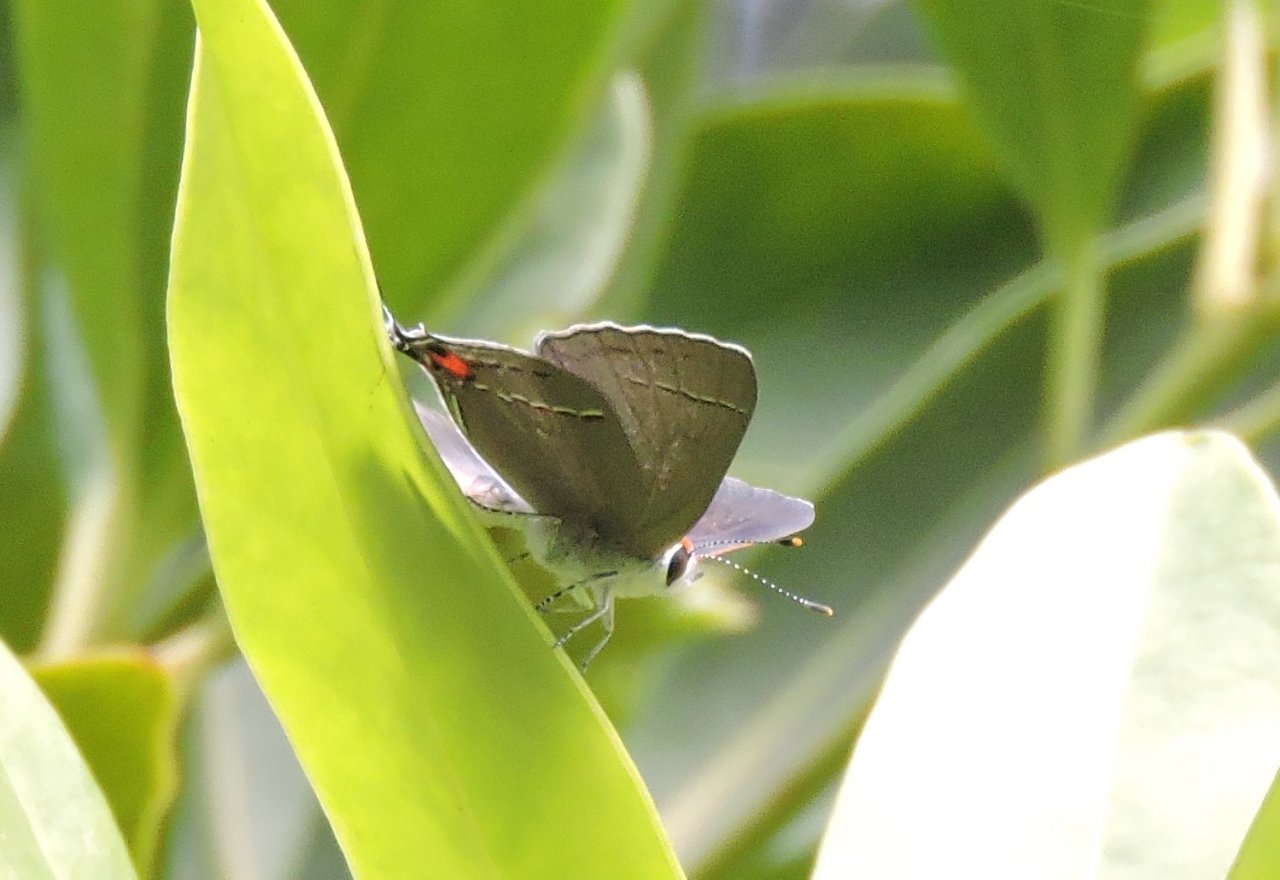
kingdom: Animalia
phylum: Arthropoda
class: Insecta
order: Lepidoptera
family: Lycaenidae
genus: Strymon
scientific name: Strymon melinus
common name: Gray Hairstreak
